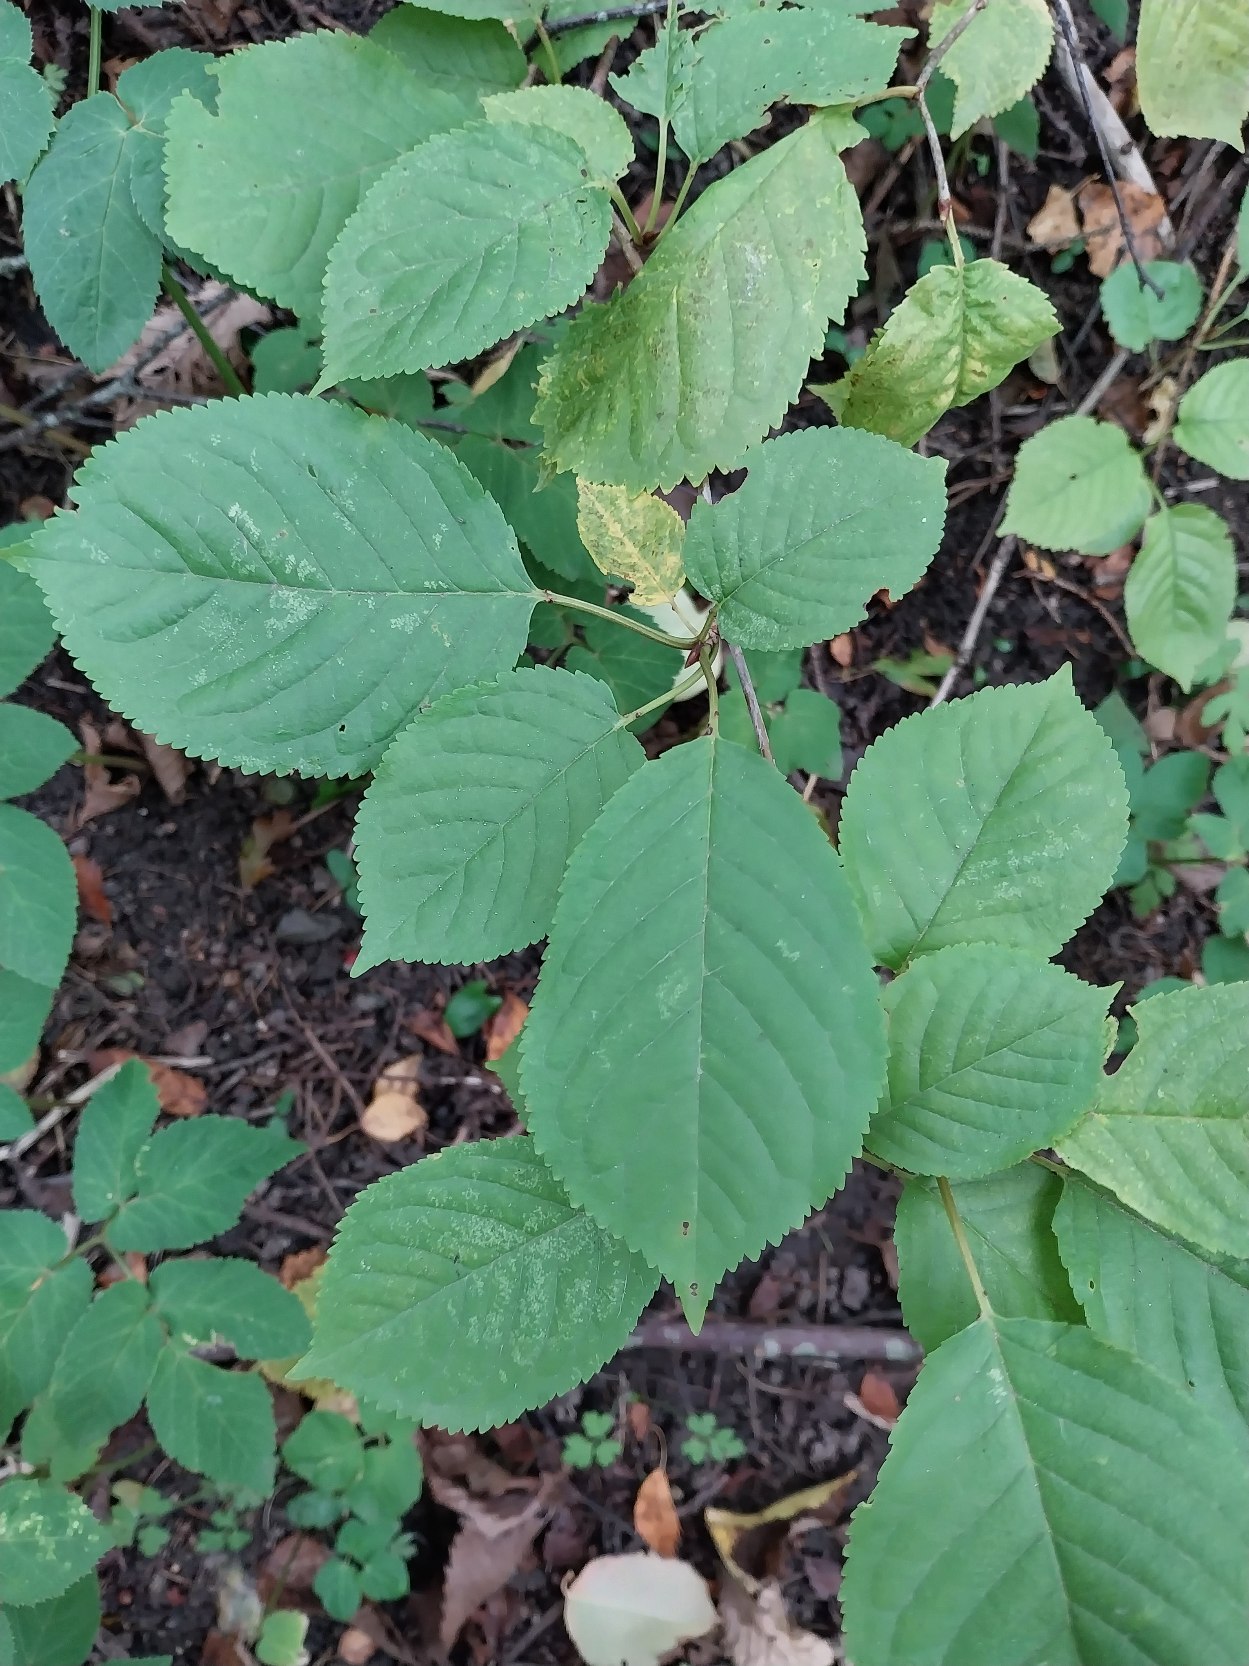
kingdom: Plantae
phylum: Tracheophyta
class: Magnoliopsida
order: Rosales
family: Rosaceae
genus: Prunus
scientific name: Prunus avium
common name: Fugle-kirsebær
